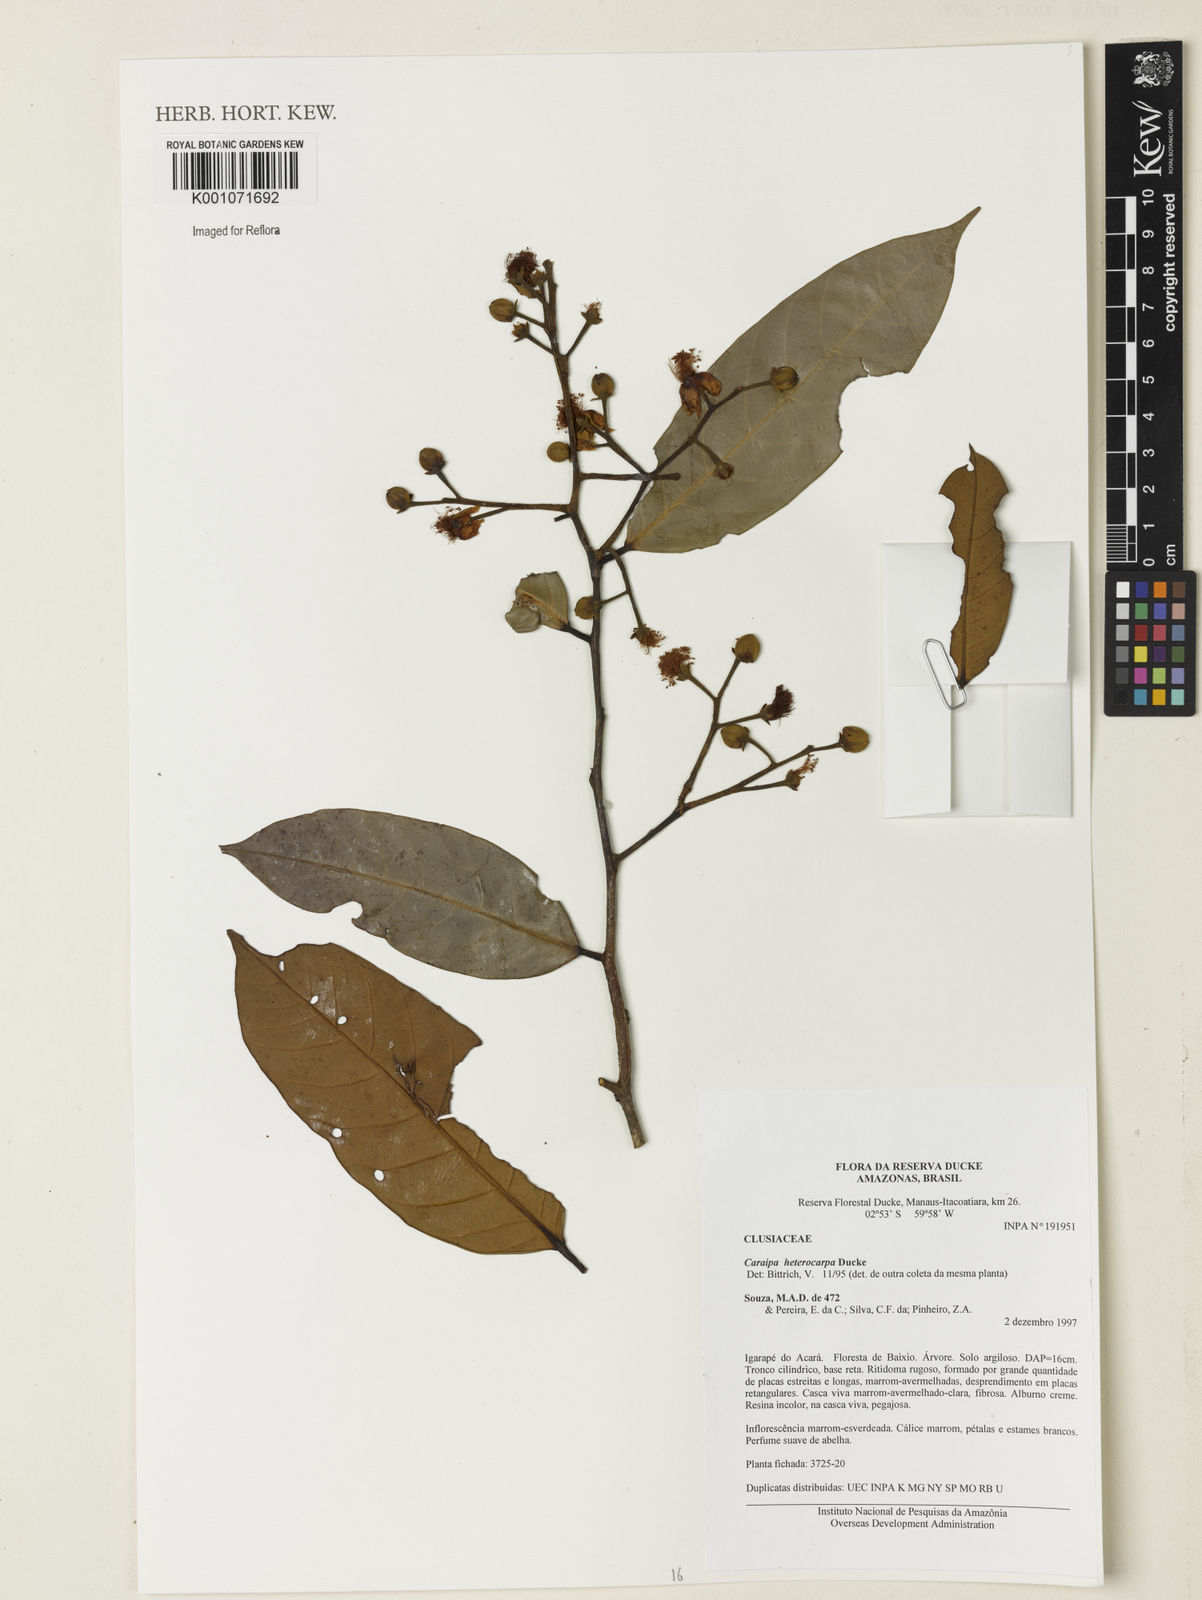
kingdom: Plantae
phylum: Tracheophyta
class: Magnoliopsida
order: Malpighiales
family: Calophyllaceae
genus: Caraipa
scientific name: Caraipa heterocarpa
